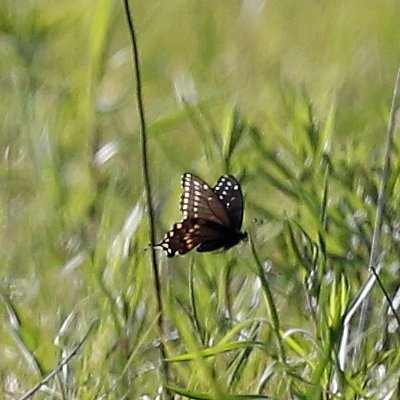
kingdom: Animalia
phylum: Arthropoda
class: Insecta
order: Lepidoptera
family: Papilionidae
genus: Papilio
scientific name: Papilio polyxenes
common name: Black Swallowtail
